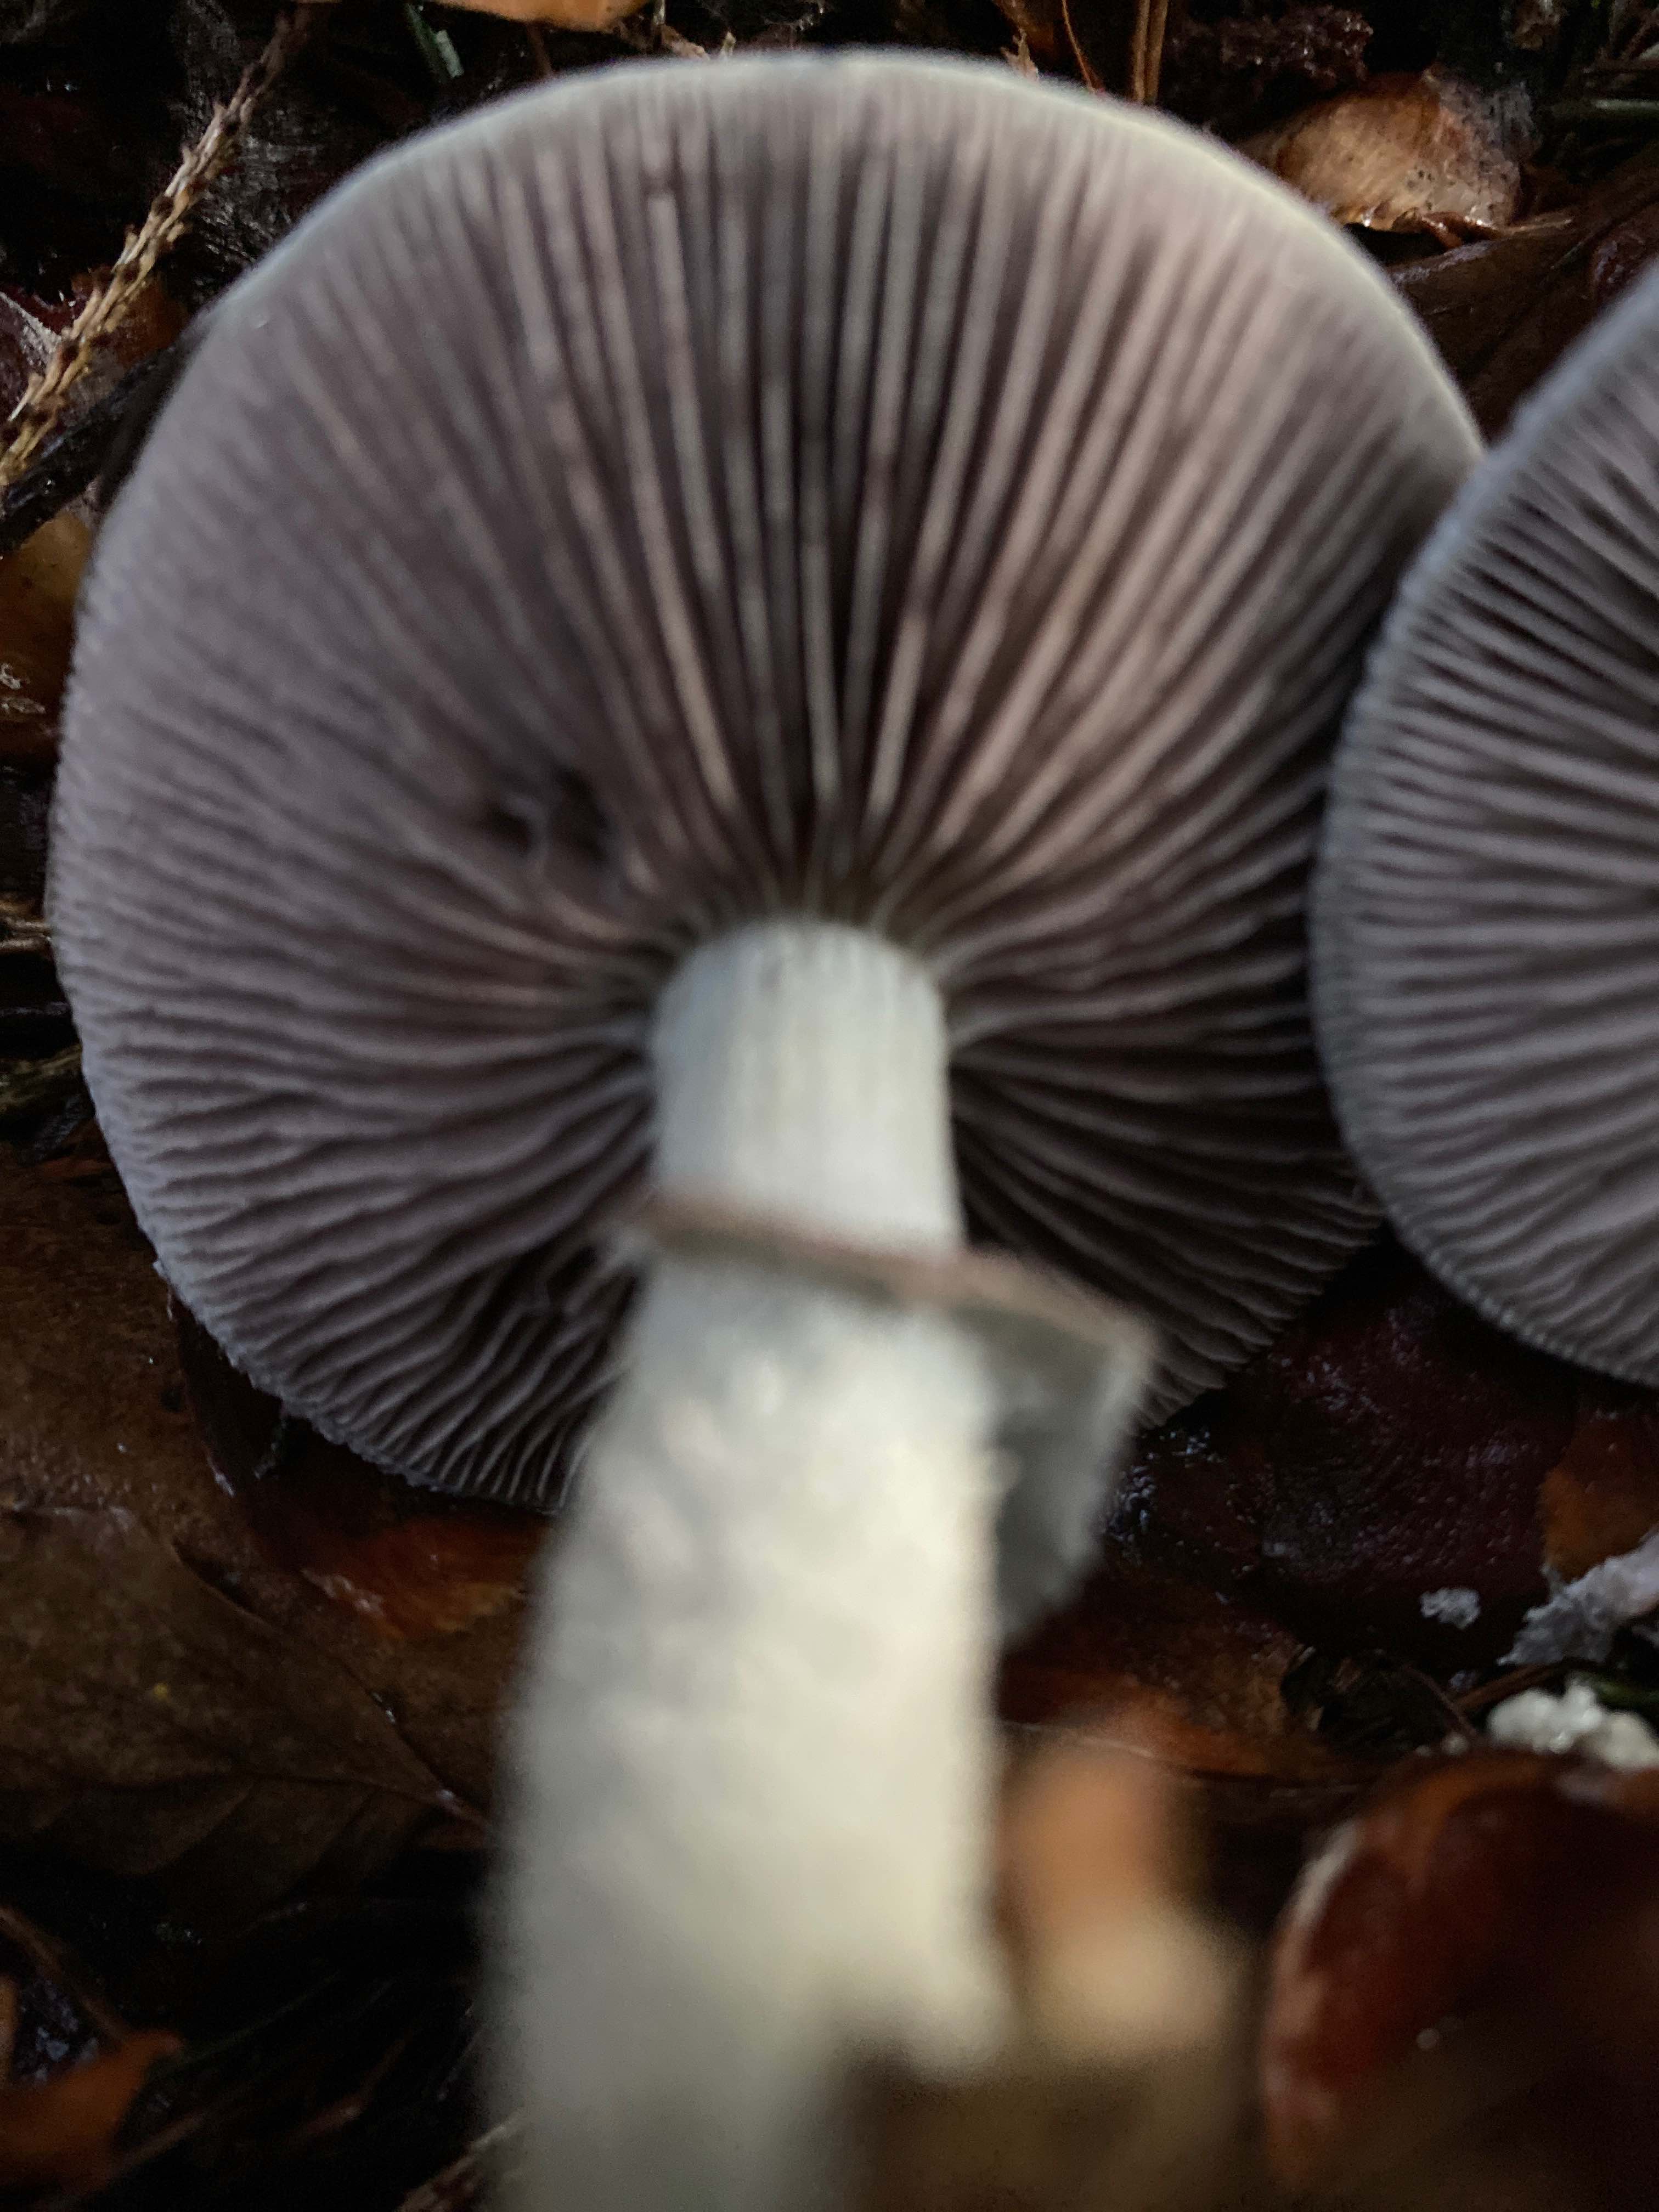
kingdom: Fungi
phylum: Basidiomycota
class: Agaricomycetes
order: Agaricales
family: Strophariaceae
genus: Stropharia
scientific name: Stropharia aeruginosa
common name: spanskgrøn bredblad
